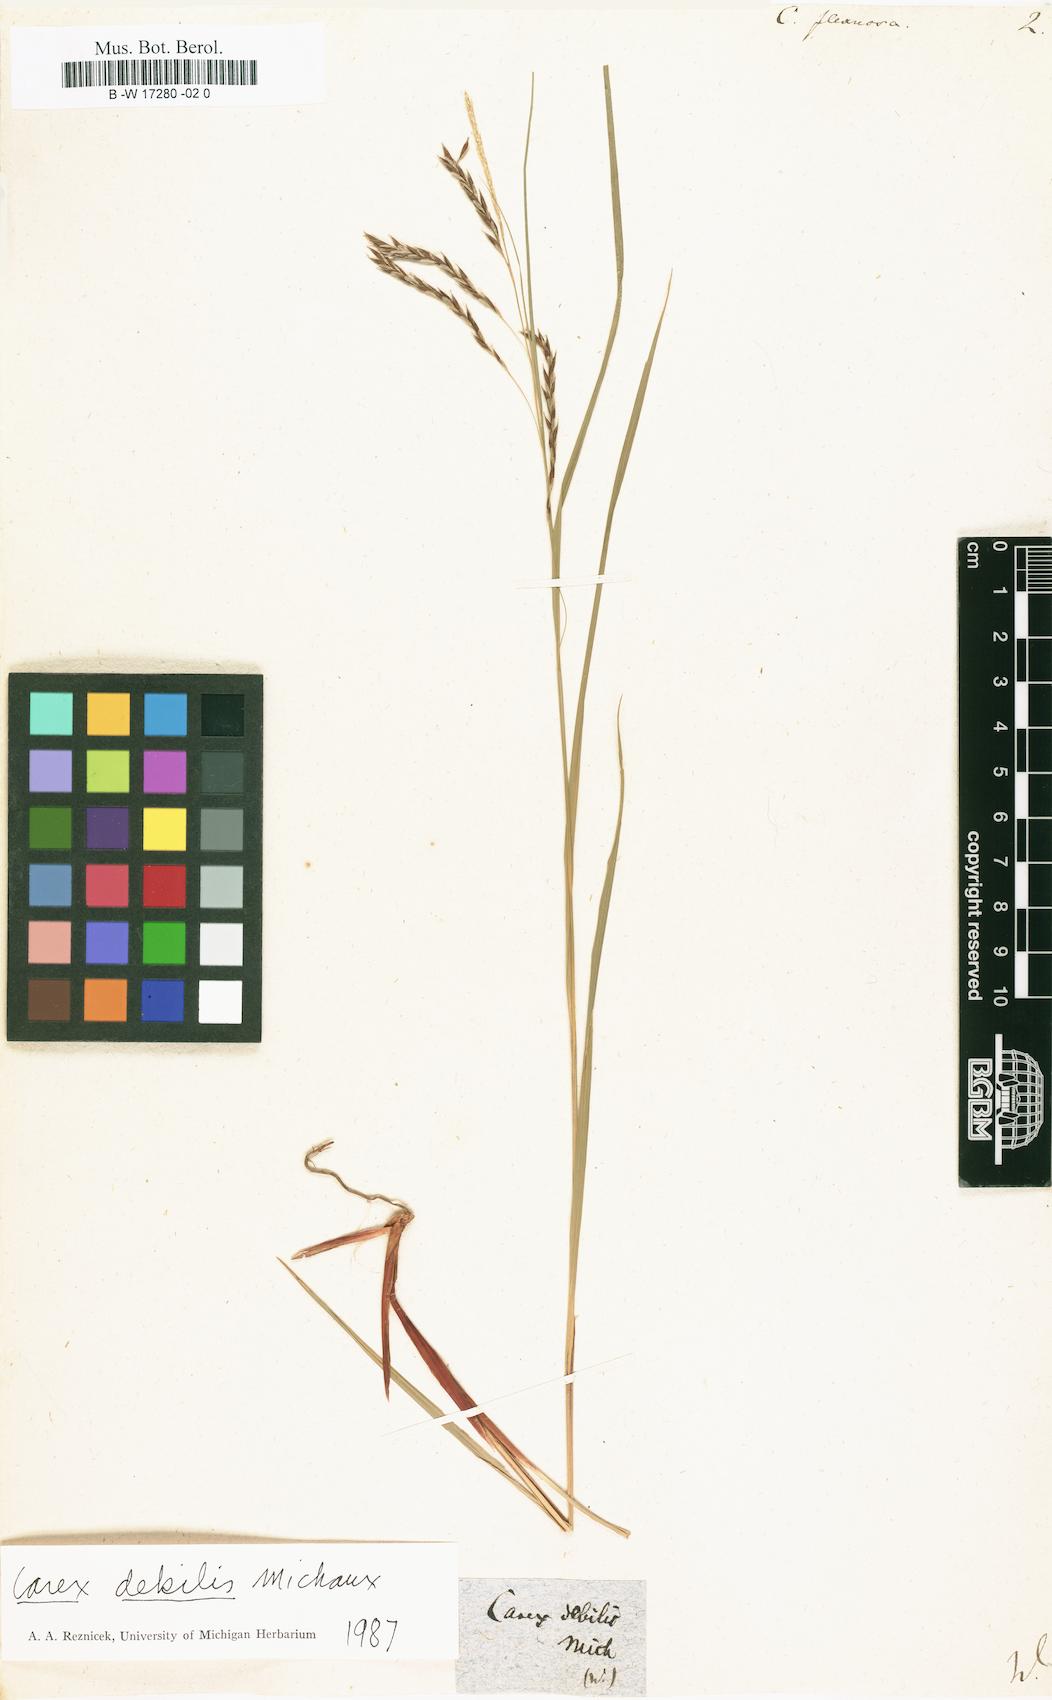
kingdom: Plantae
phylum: Tracheophyta
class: Liliopsida
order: Poales
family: Cyperaceae
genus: Carex
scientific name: Carex flexuosa
